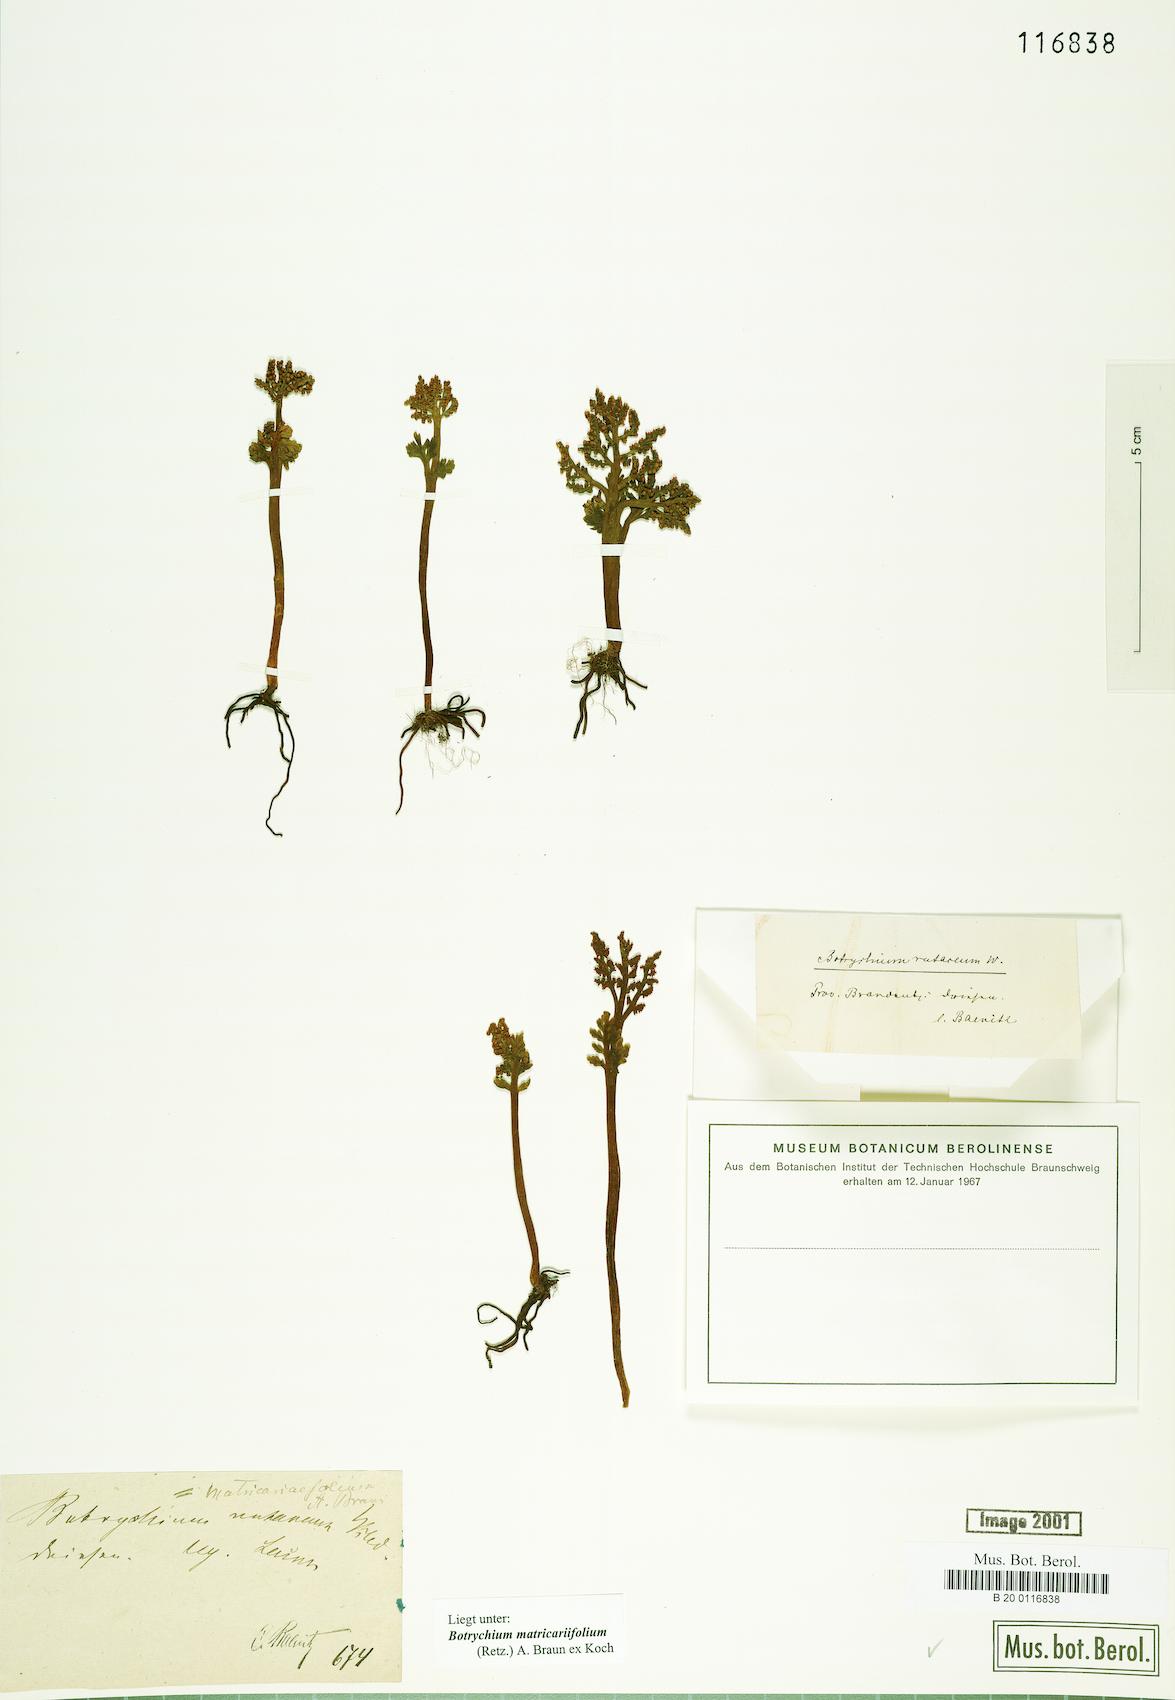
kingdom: Plantae
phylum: Tracheophyta
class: Polypodiopsida
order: Ophioglossales
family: Ophioglossaceae
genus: Botrychium
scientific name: Botrychium matricariifolium
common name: Branched moonwort
